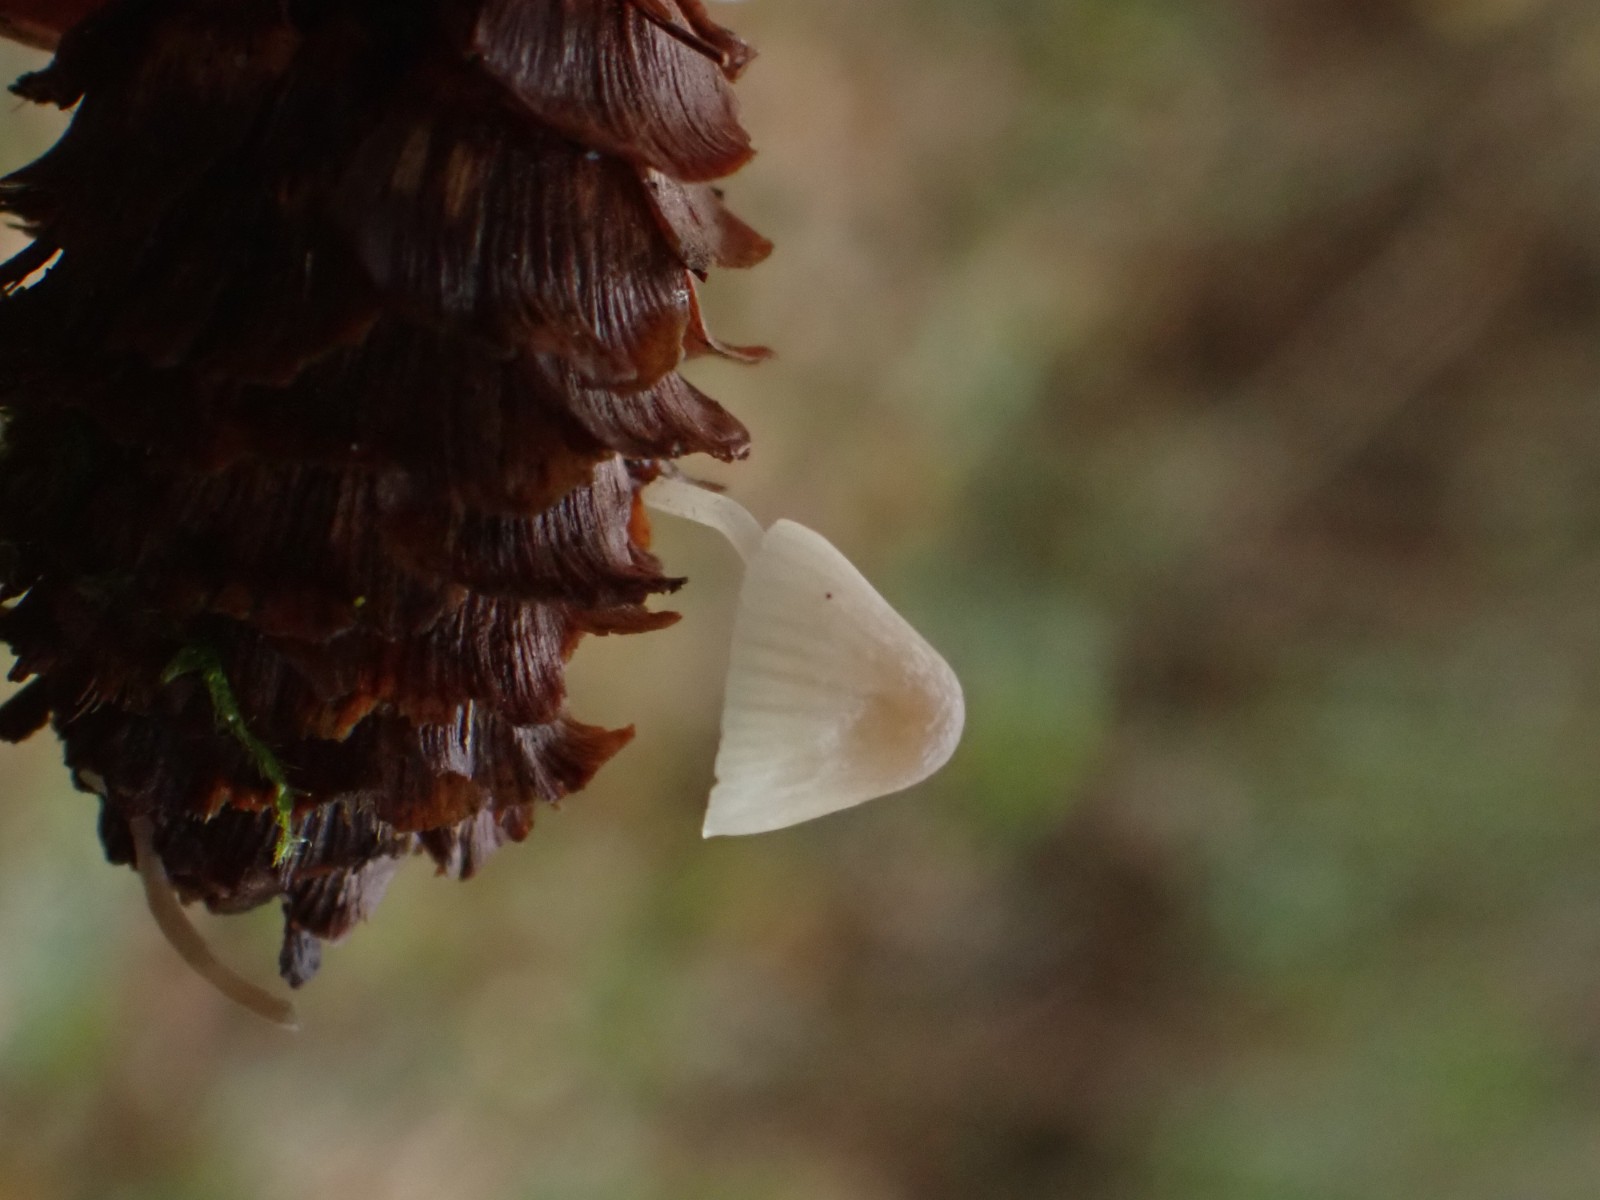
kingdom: Fungi
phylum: Basidiomycota
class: Agaricomycetes
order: Agaricales
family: Mycenaceae
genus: Mycena
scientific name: Mycena
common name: huesvamp
